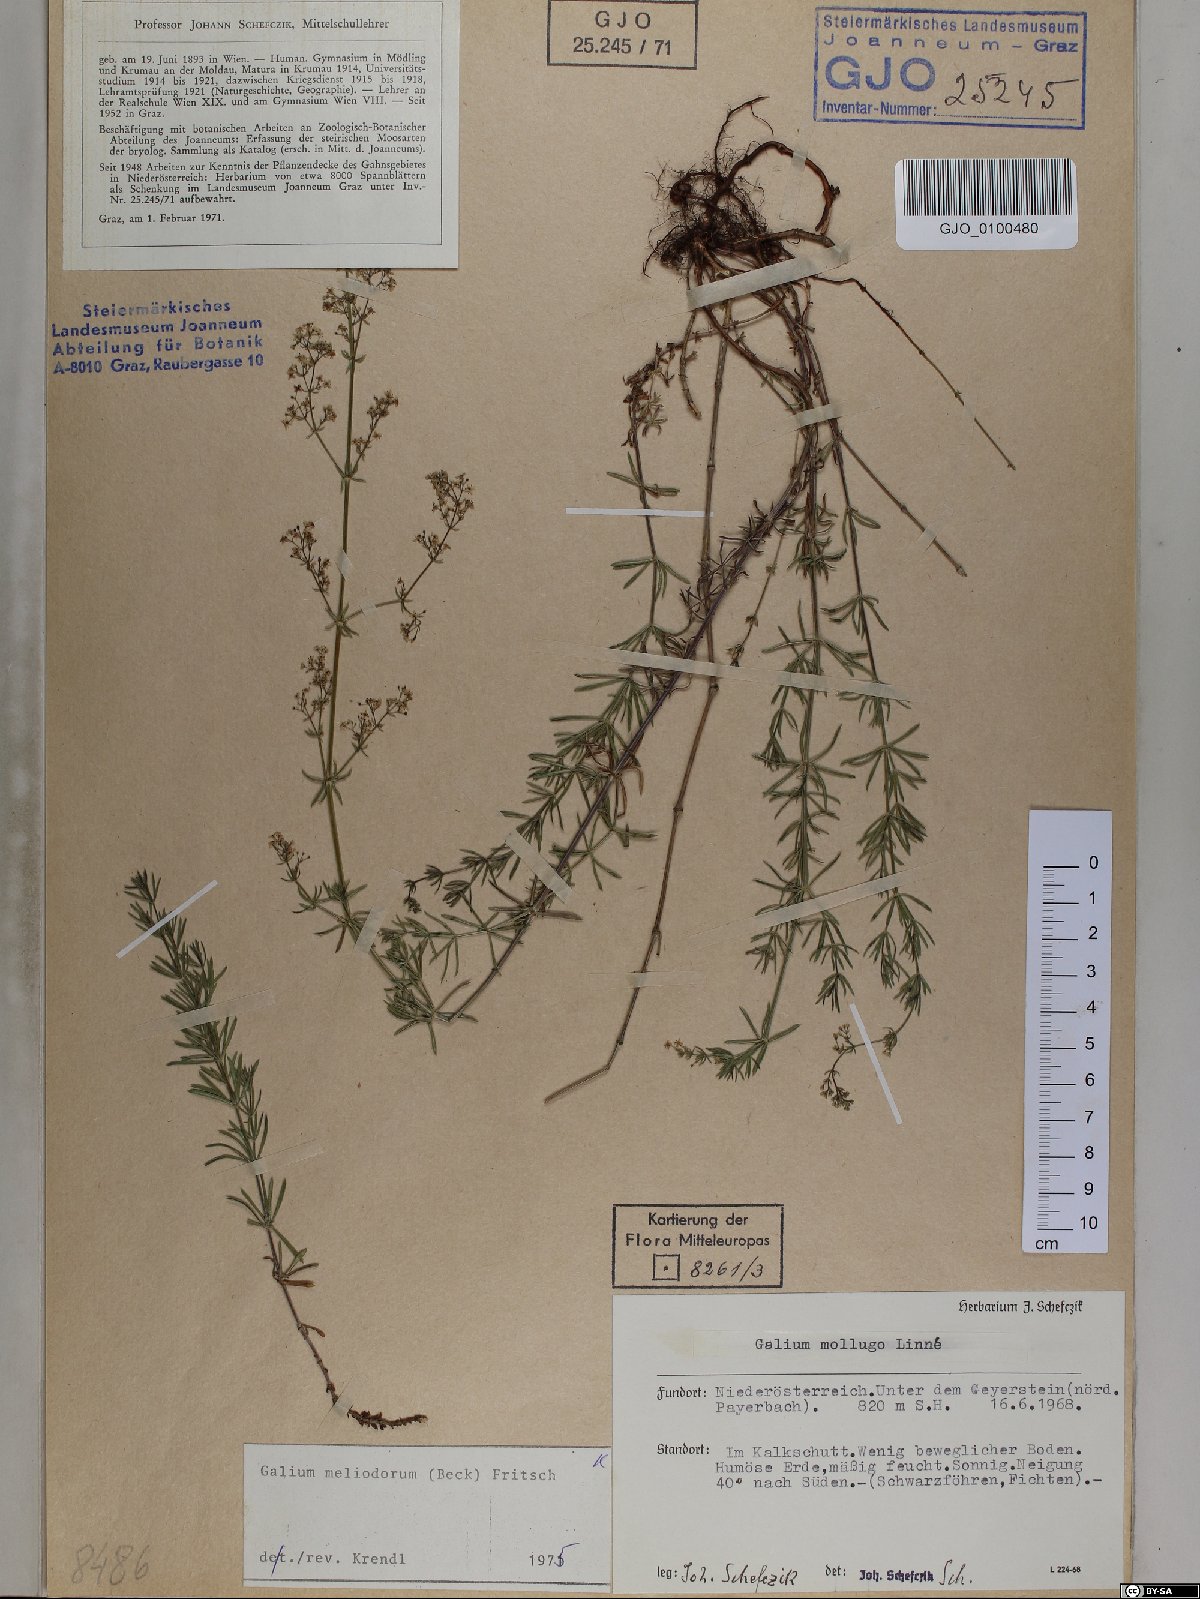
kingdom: Plantae
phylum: Tracheophyta
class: Magnoliopsida
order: Gentianales
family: Rubiaceae
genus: Galium
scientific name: Galium meliodorum
